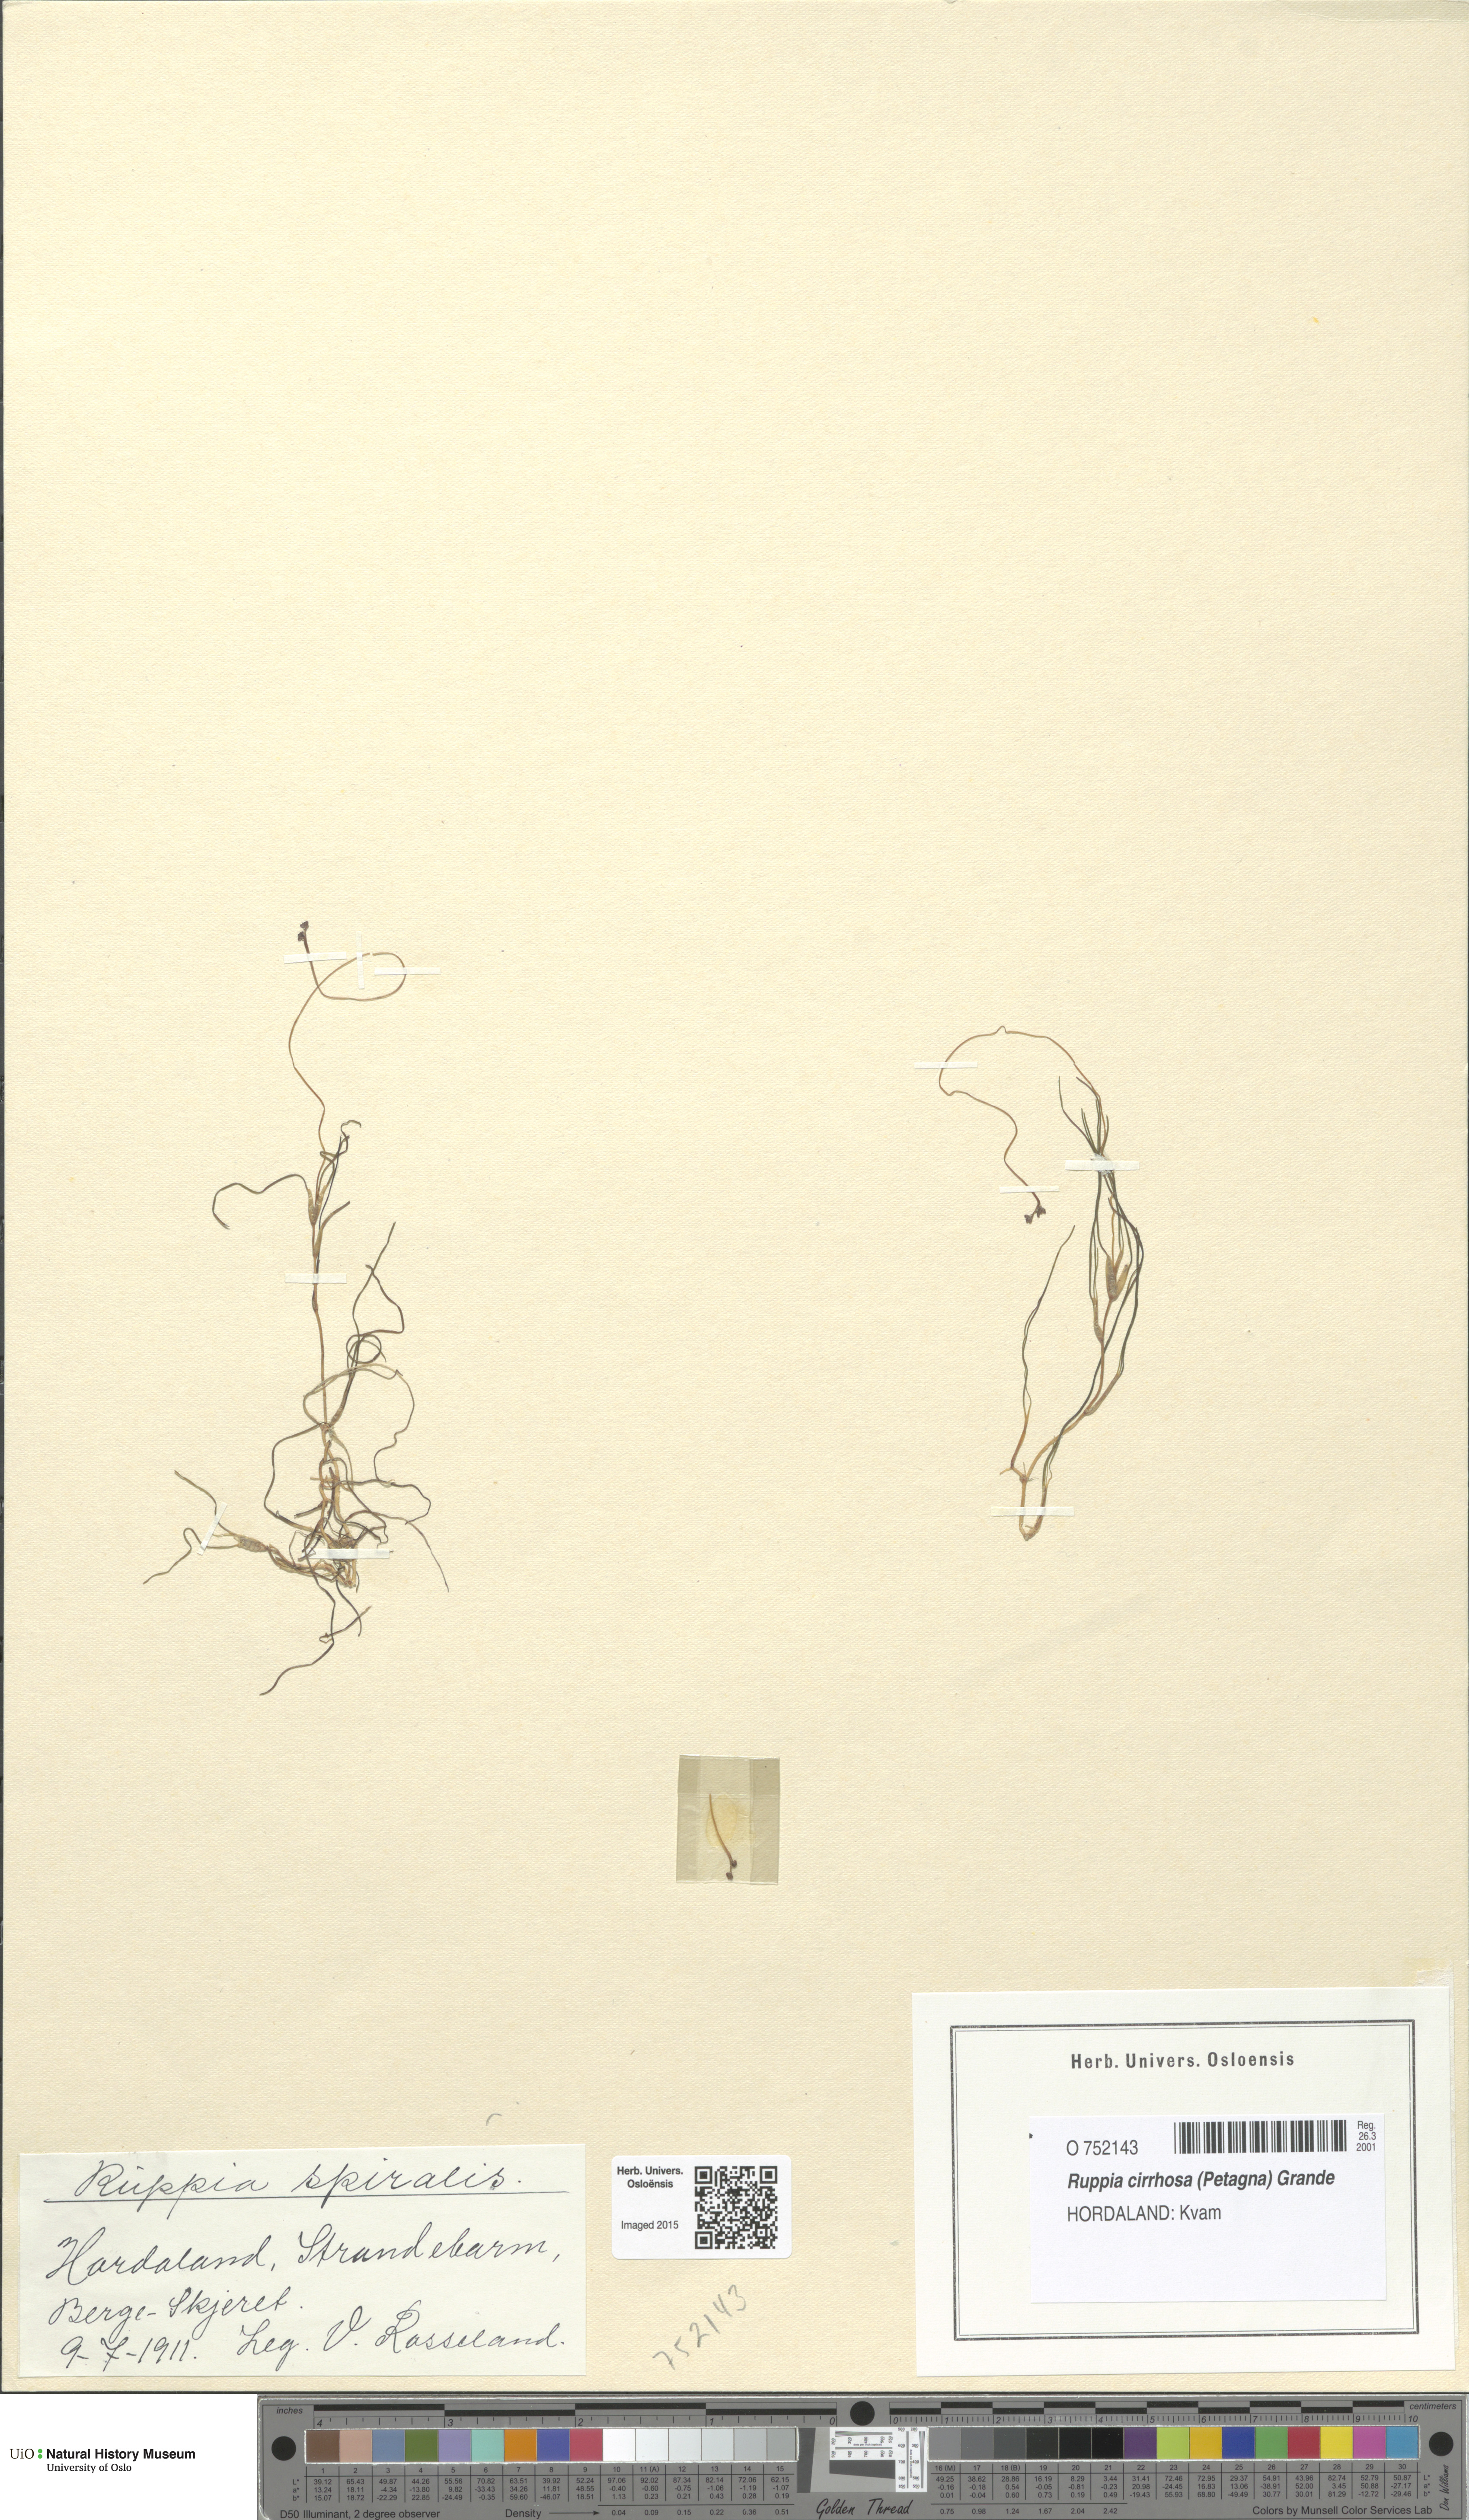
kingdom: Plantae
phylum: Tracheophyta
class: Liliopsida
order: Alismatales
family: Ruppiaceae
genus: Ruppia
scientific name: Ruppia cirrhosa
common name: Spiral tasselweed
